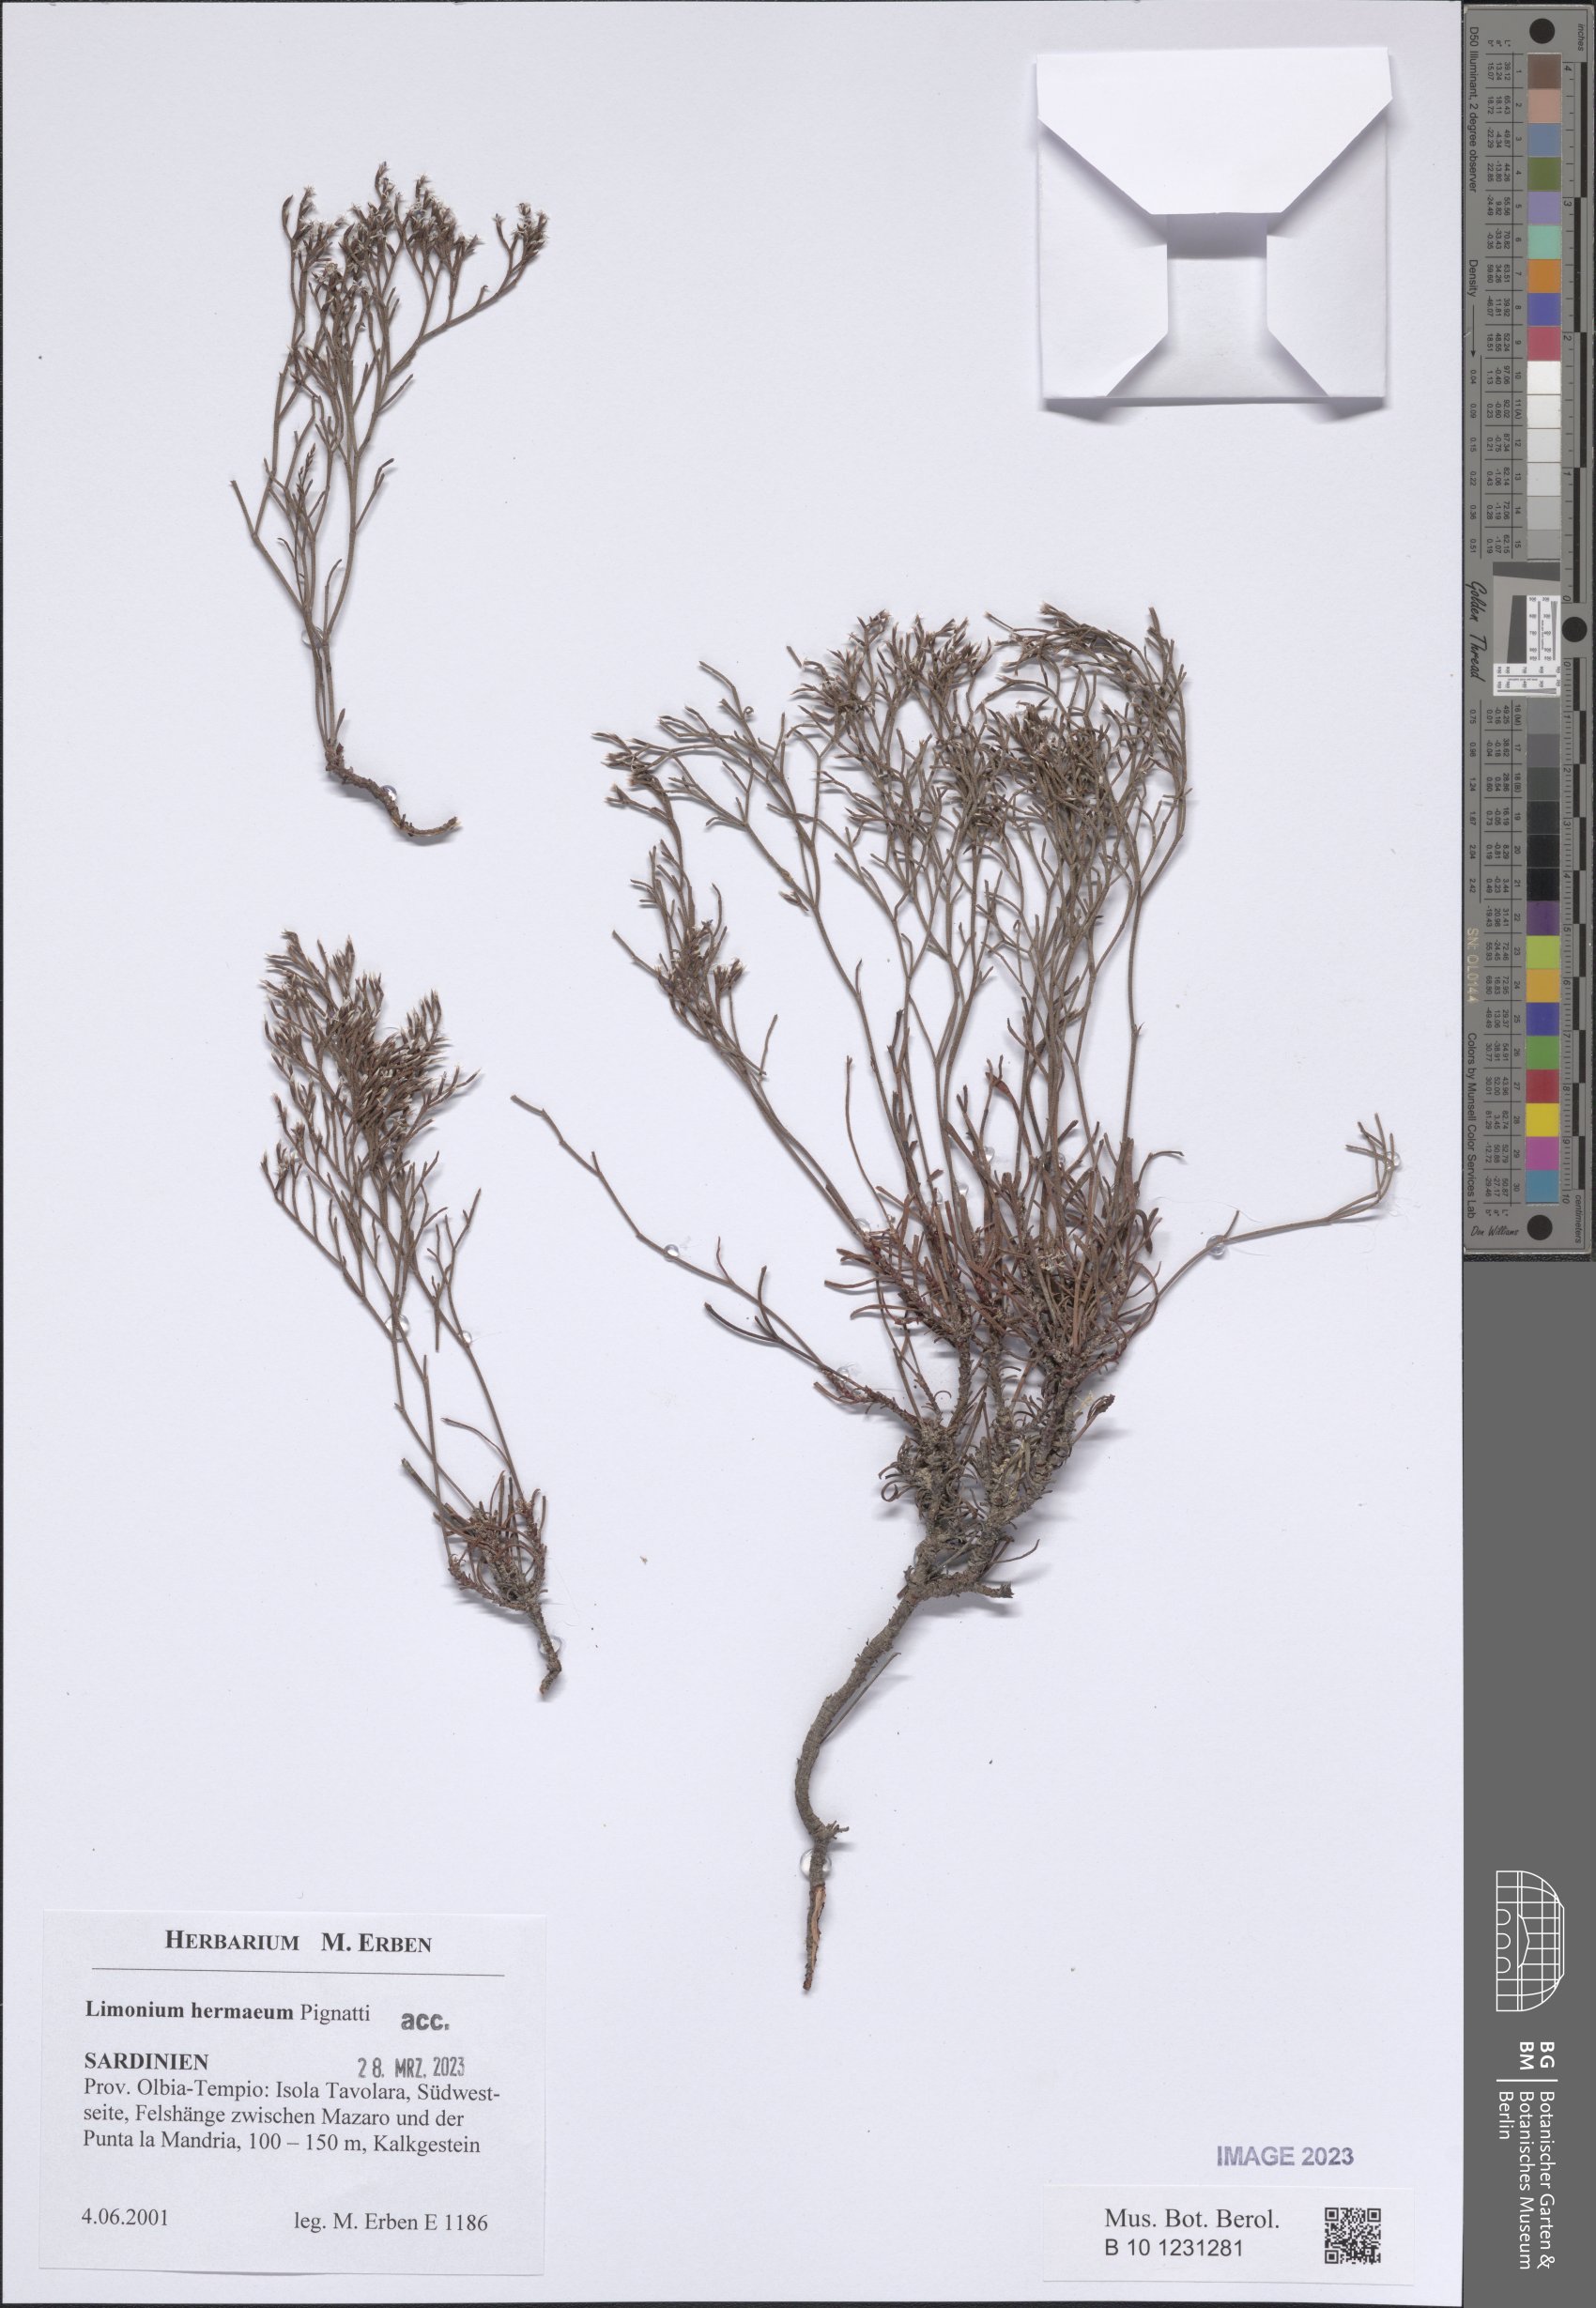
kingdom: Plantae
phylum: Tracheophyta
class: Magnoliopsida
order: Caryophyllales
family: Plumbaginaceae
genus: Limonium
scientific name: Limonium hermaeum
